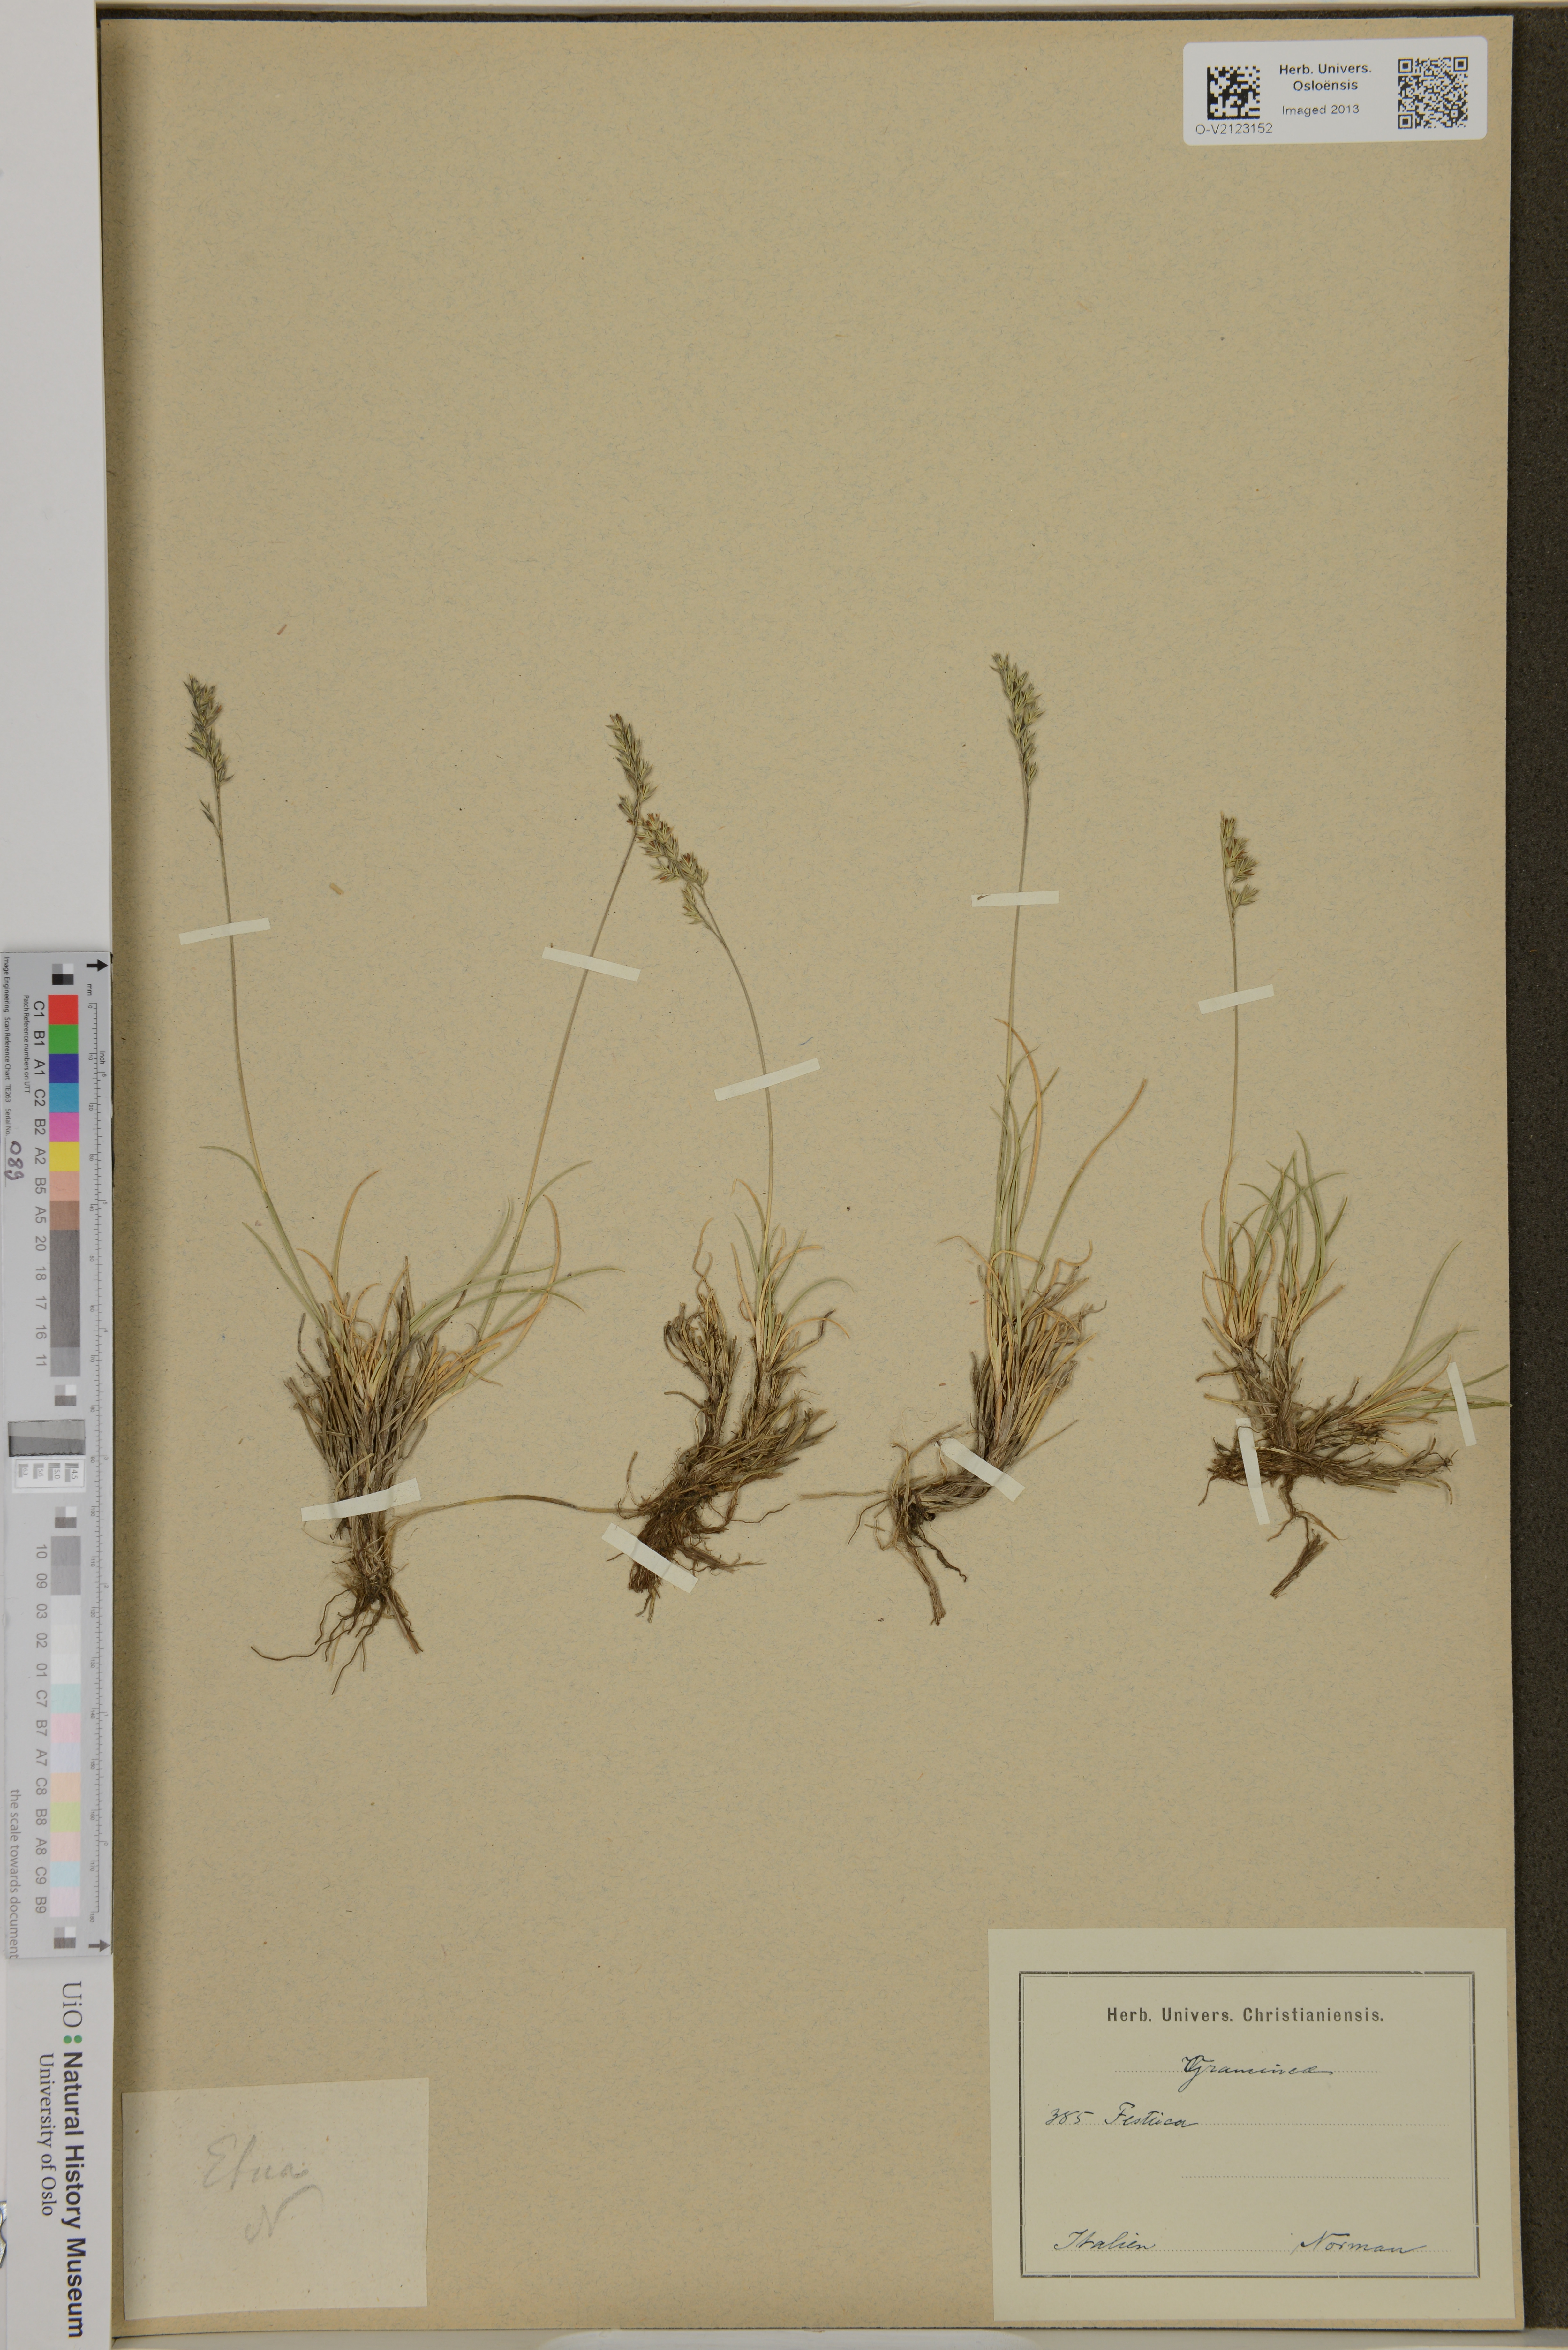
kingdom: Plantae
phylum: Tracheophyta
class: Liliopsida
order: Poales
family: Poaceae
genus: Festuca
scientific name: Festuca
